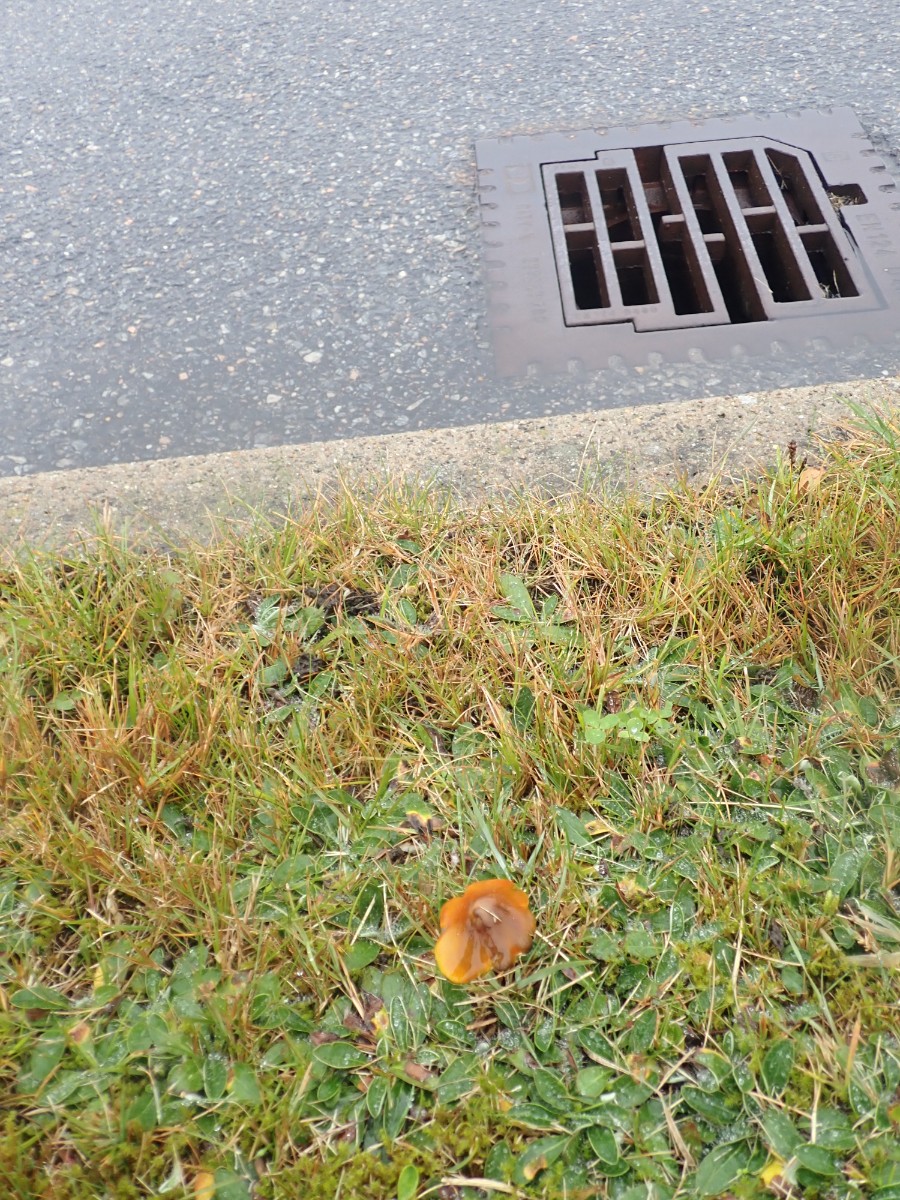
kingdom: Fungi
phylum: Basidiomycota
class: Agaricomycetes
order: Agaricales
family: Hygrophoraceae
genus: Hygrocybe
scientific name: Hygrocybe conica
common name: kegle-vokshat
